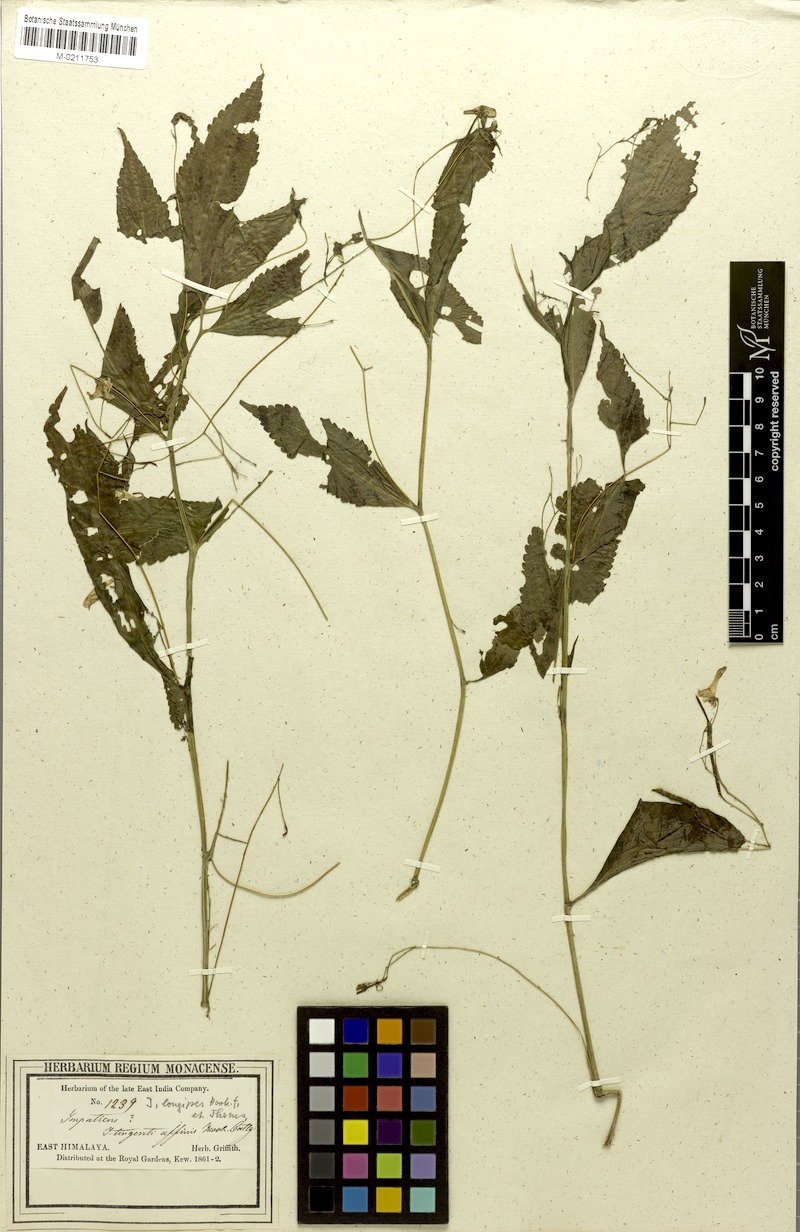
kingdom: Plantae
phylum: Tracheophyta
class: Magnoliopsida
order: Ericales
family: Balsaminaceae
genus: Impatiens
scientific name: Impatiens longipes
